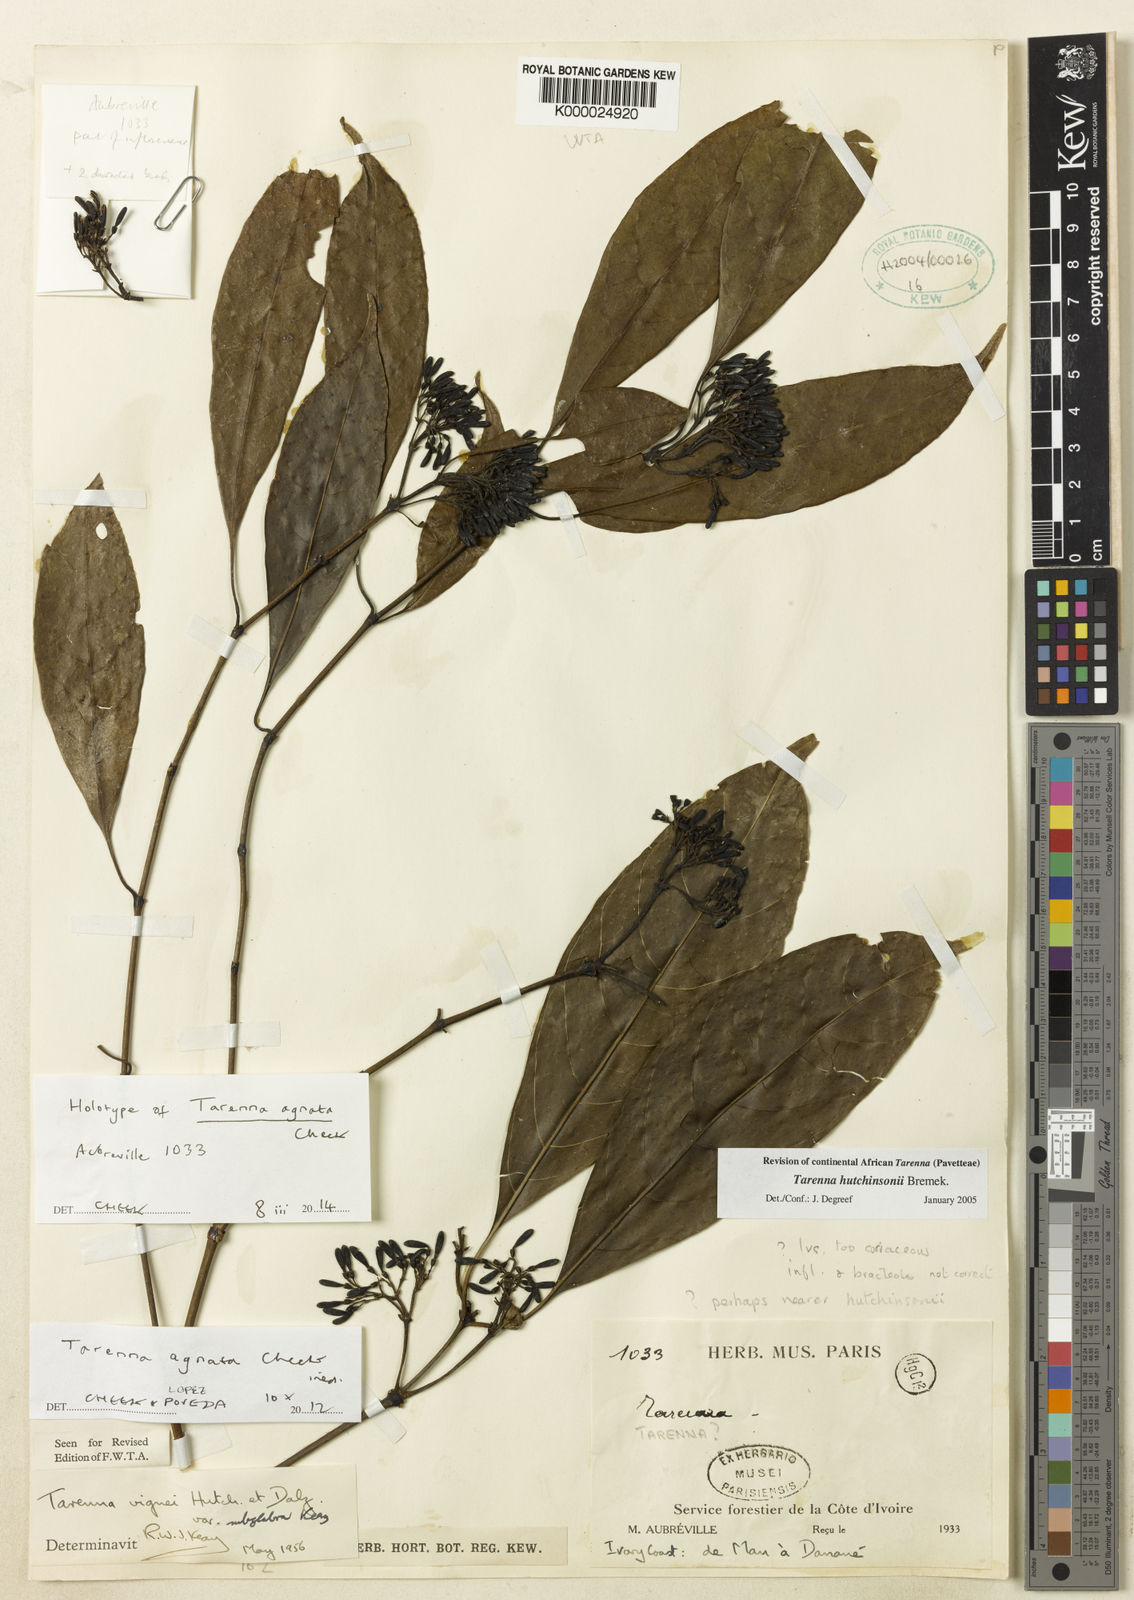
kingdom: Plantae
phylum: Tracheophyta
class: Magnoliopsida
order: Gentianales
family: Rubiaceae
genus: Tarenna
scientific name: Tarenna agnata
